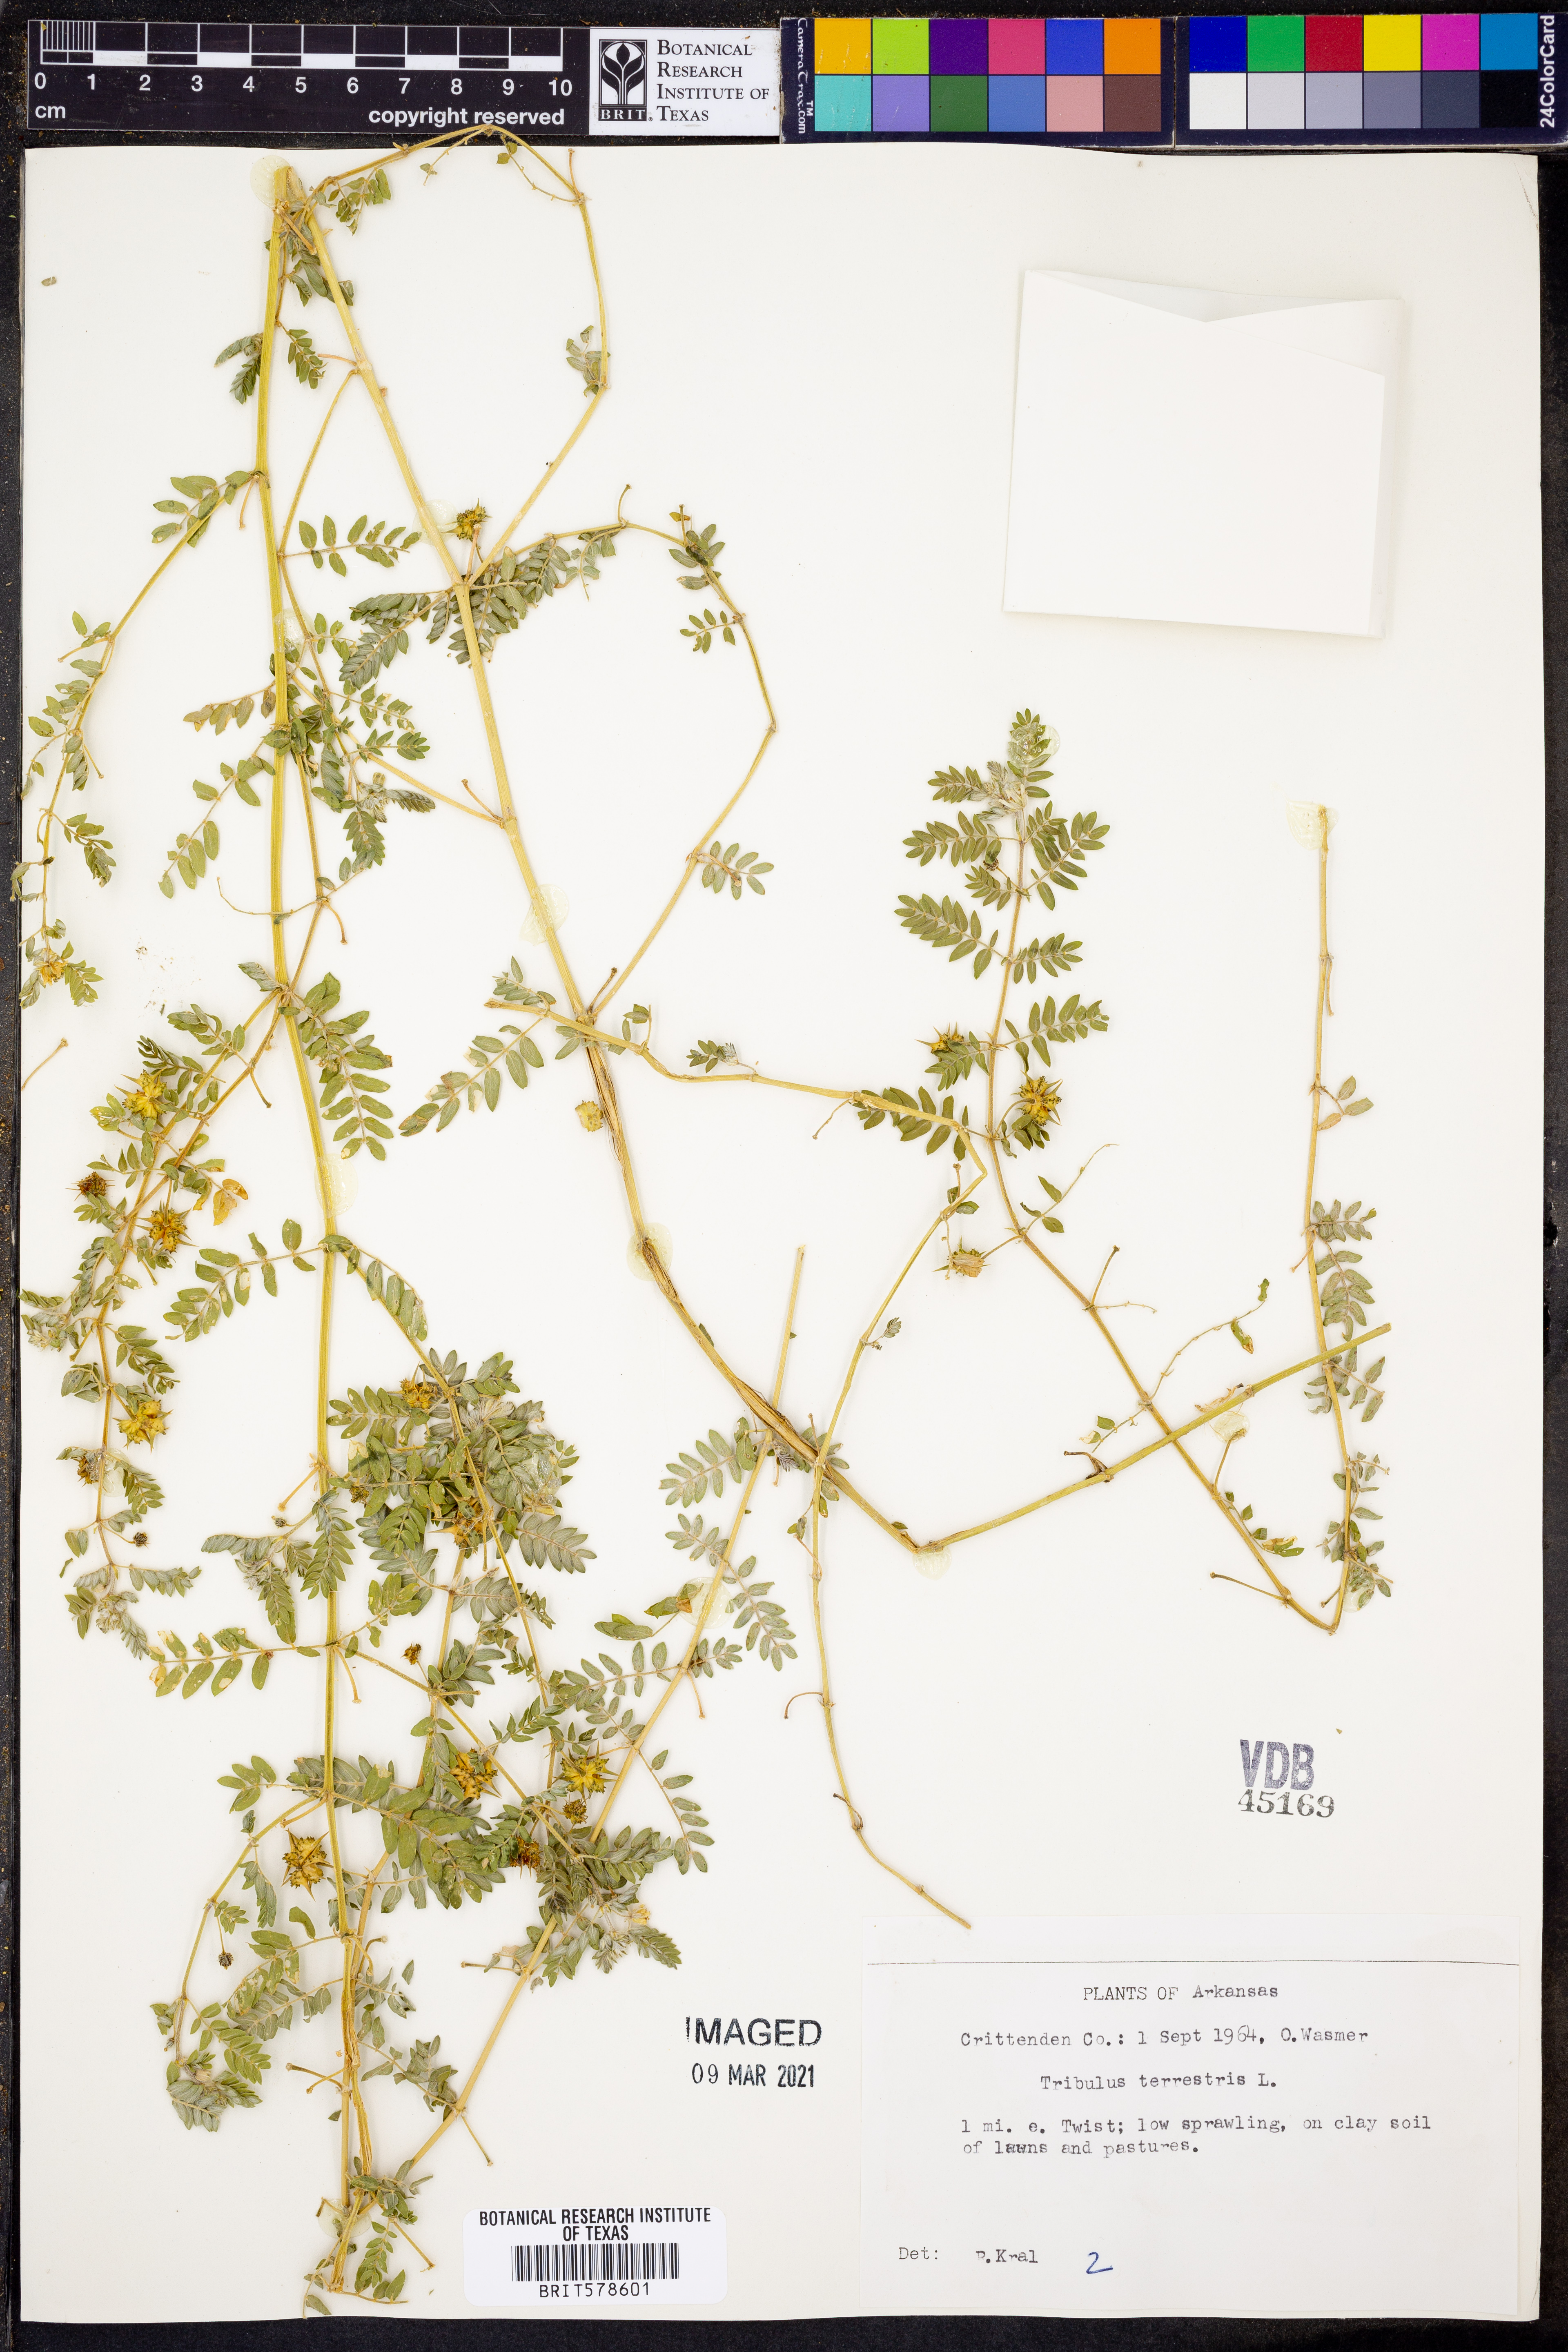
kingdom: Plantae
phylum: Tracheophyta
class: Magnoliopsida
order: Zygophyllales
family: Zygophyllaceae
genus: Tribulus
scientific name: Tribulus terrestris
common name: Puncturevine
